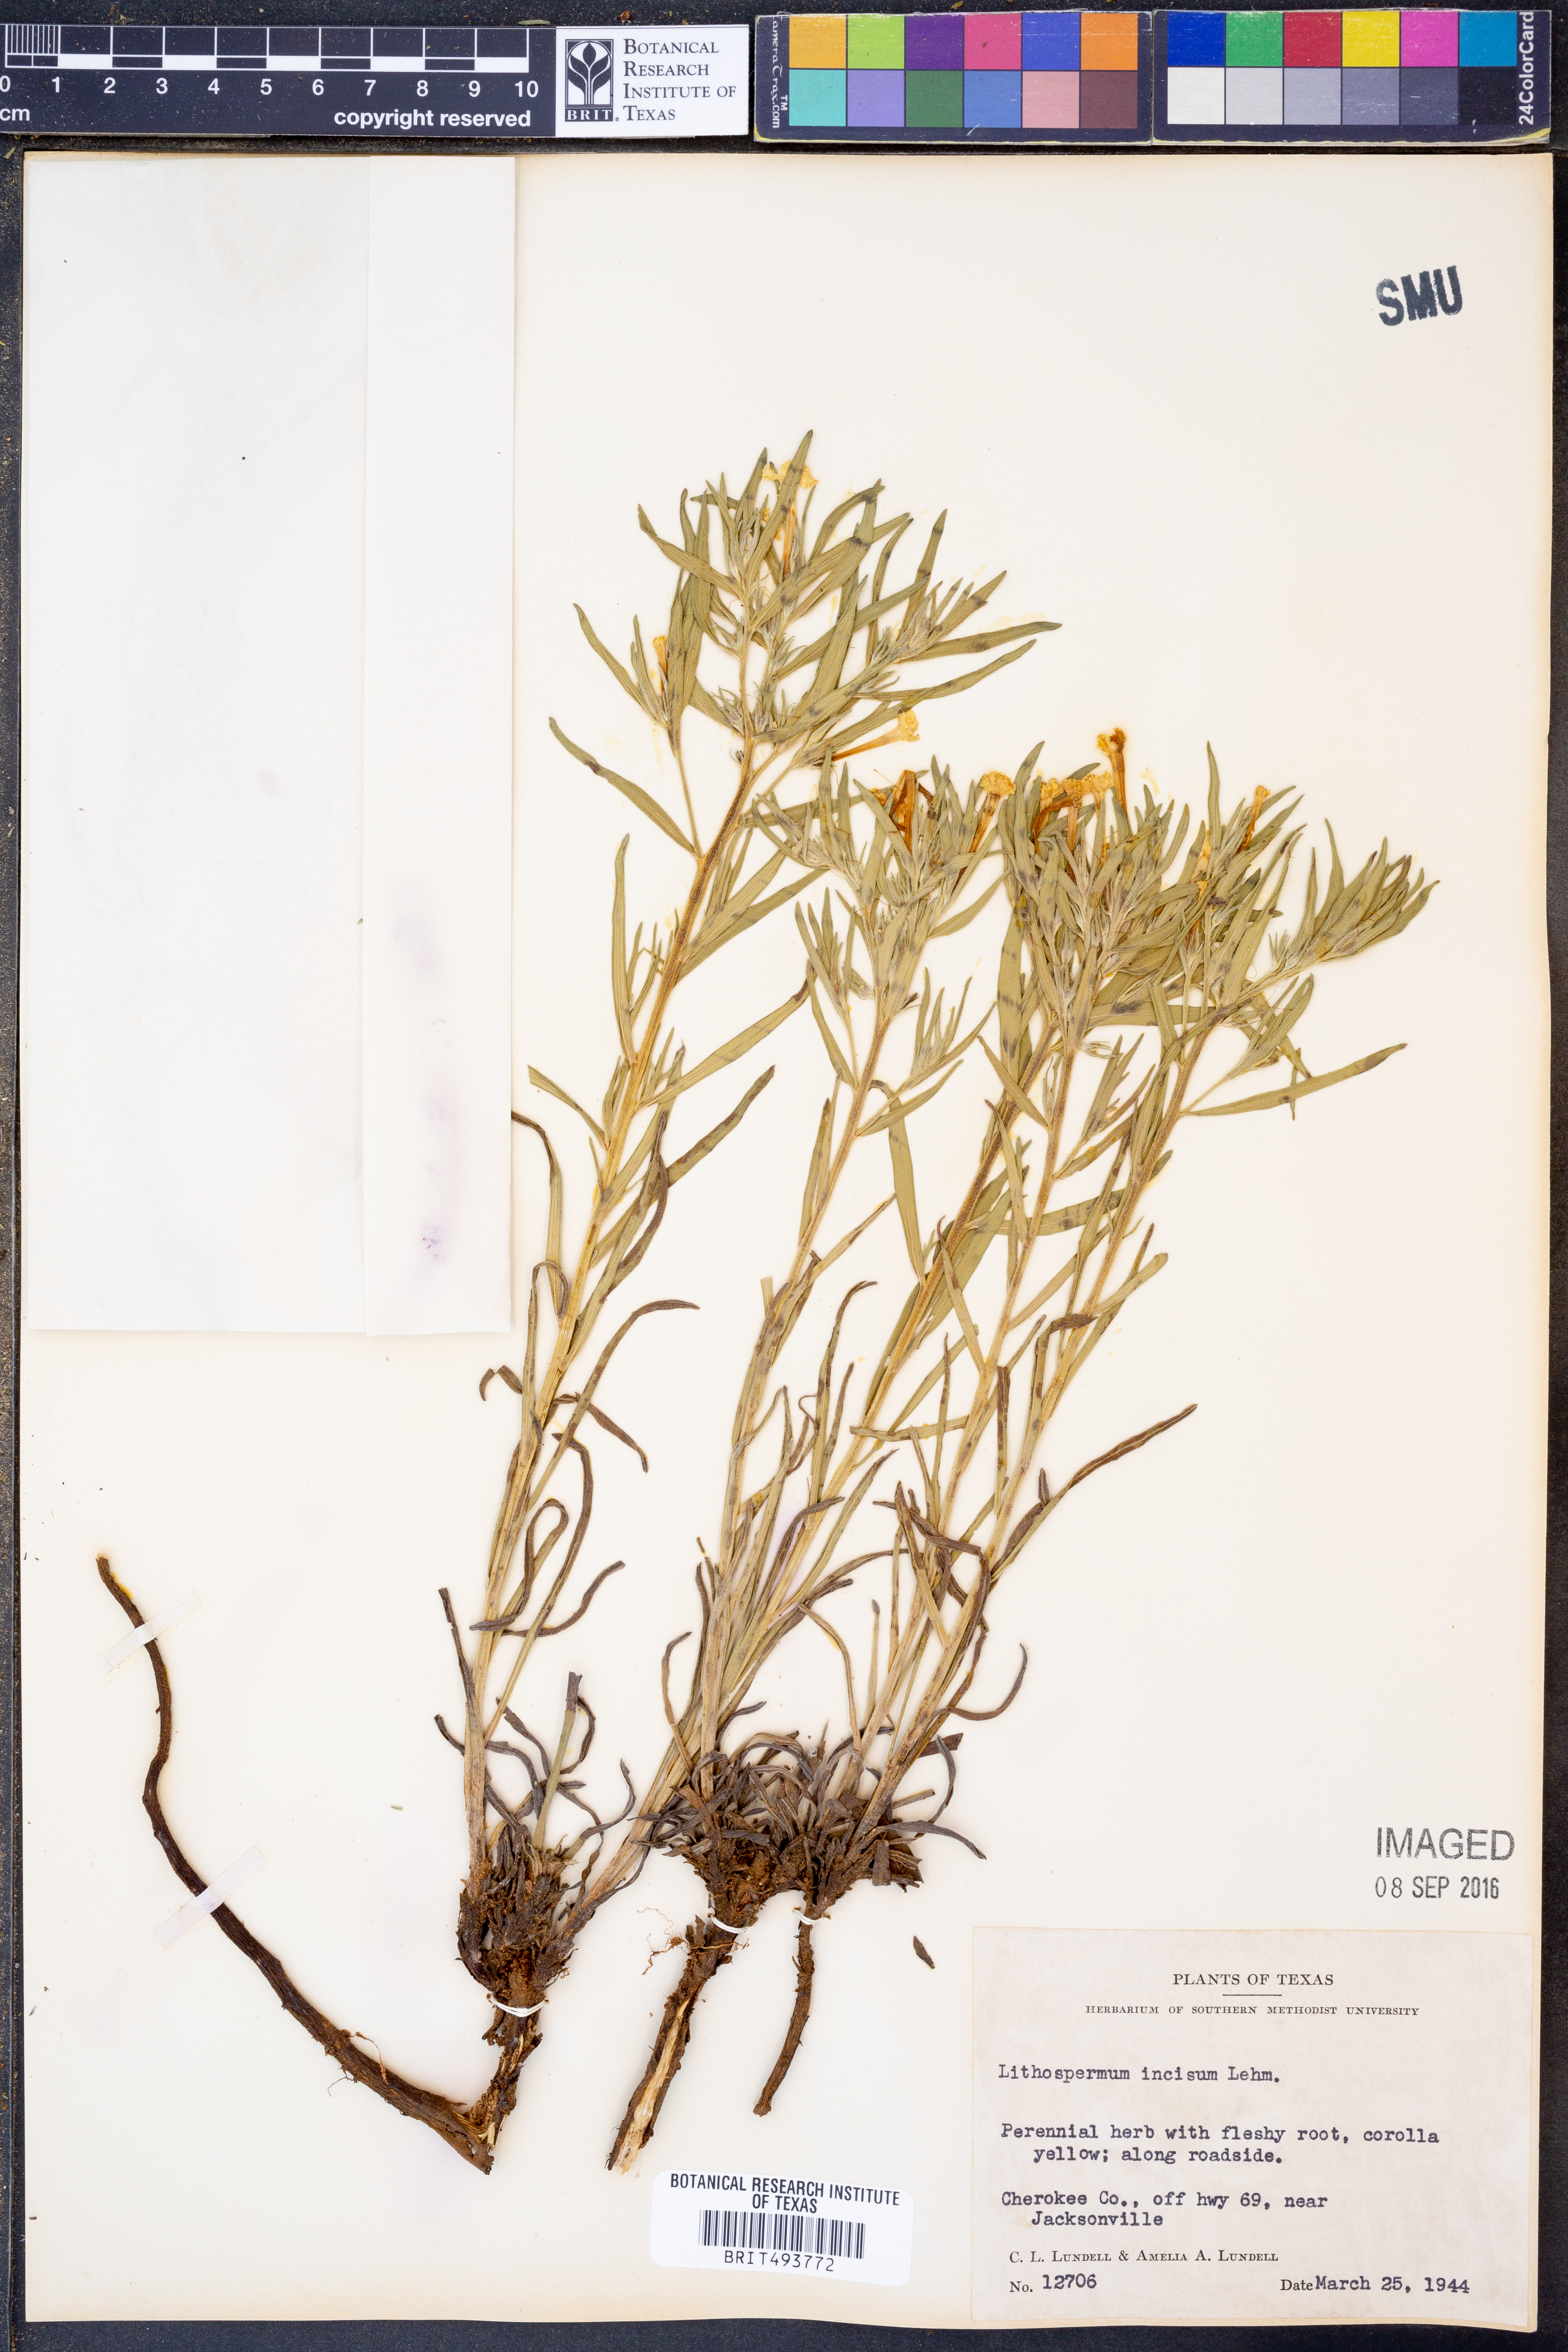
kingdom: Plantae
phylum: Tracheophyta
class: Magnoliopsida
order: Boraginales
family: Boraginaceae
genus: Lithospermum
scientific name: Lithospermum incisum
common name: Fringed gromwell
